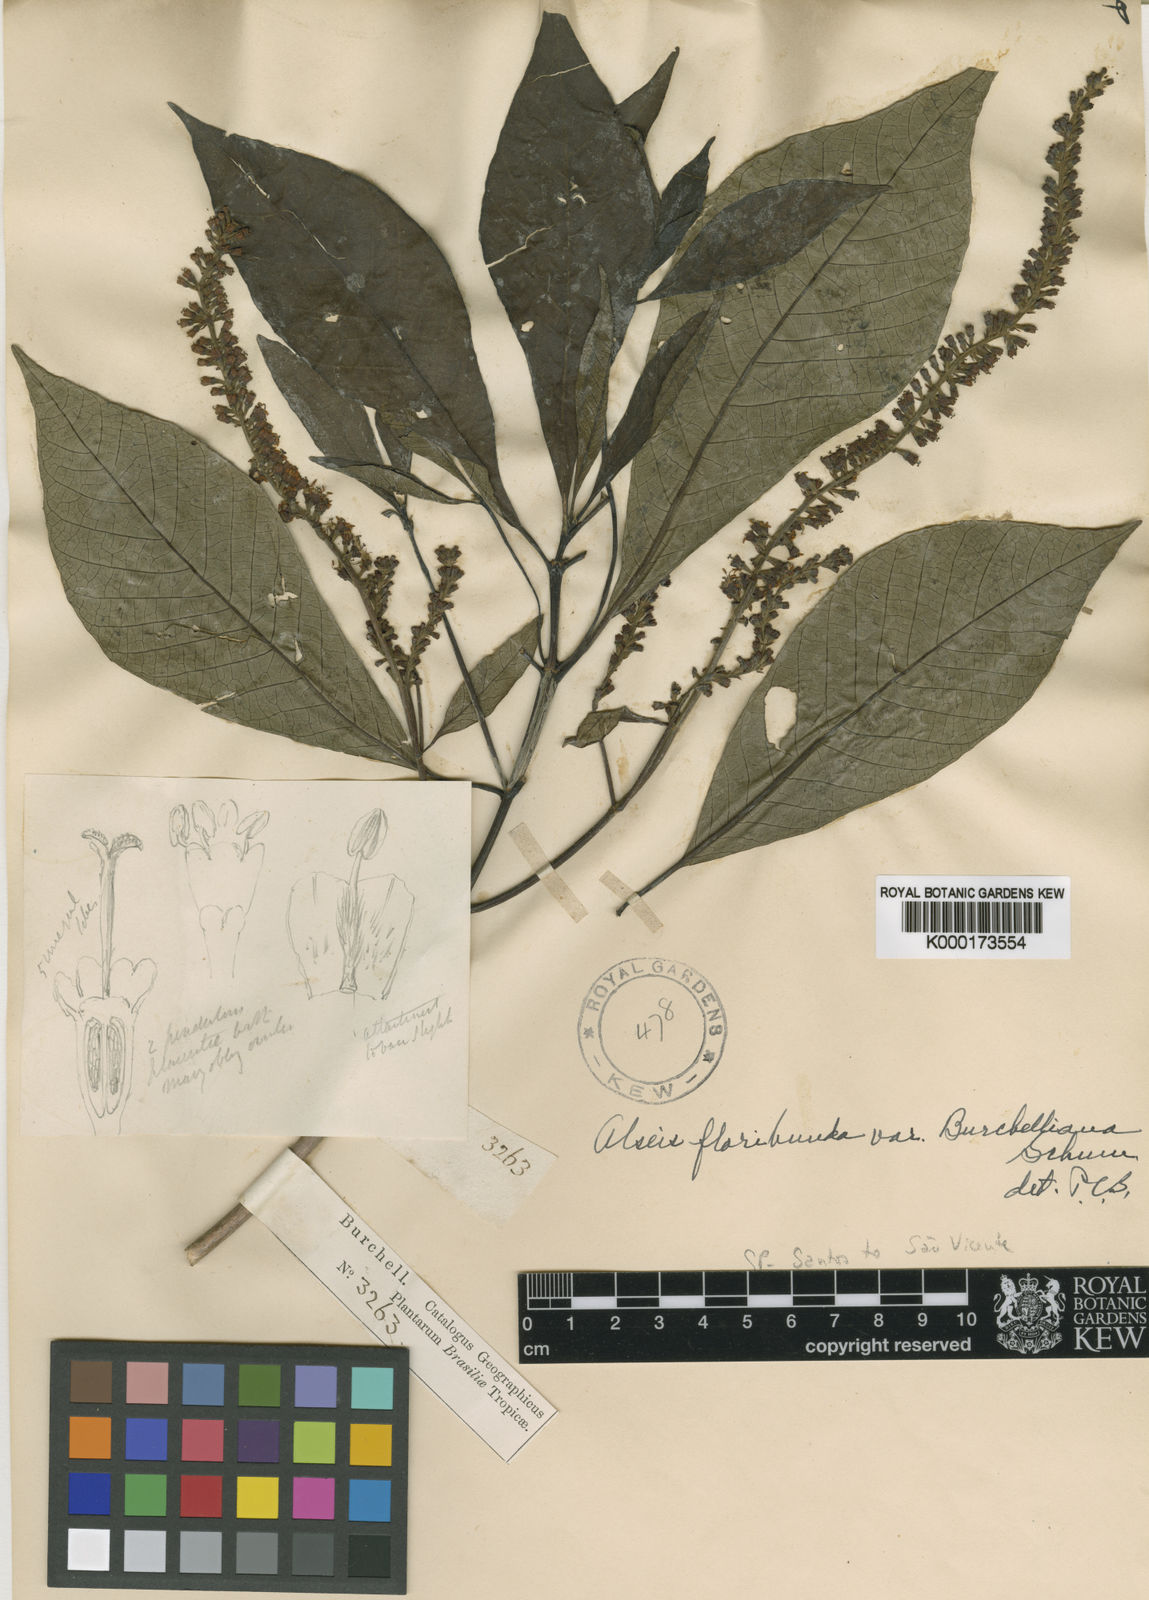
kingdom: Plantae
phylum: Tracheophyta
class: Magnoliopsida
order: Gentianales
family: Rubiaceae
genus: Alseis
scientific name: Alseis floribunda
